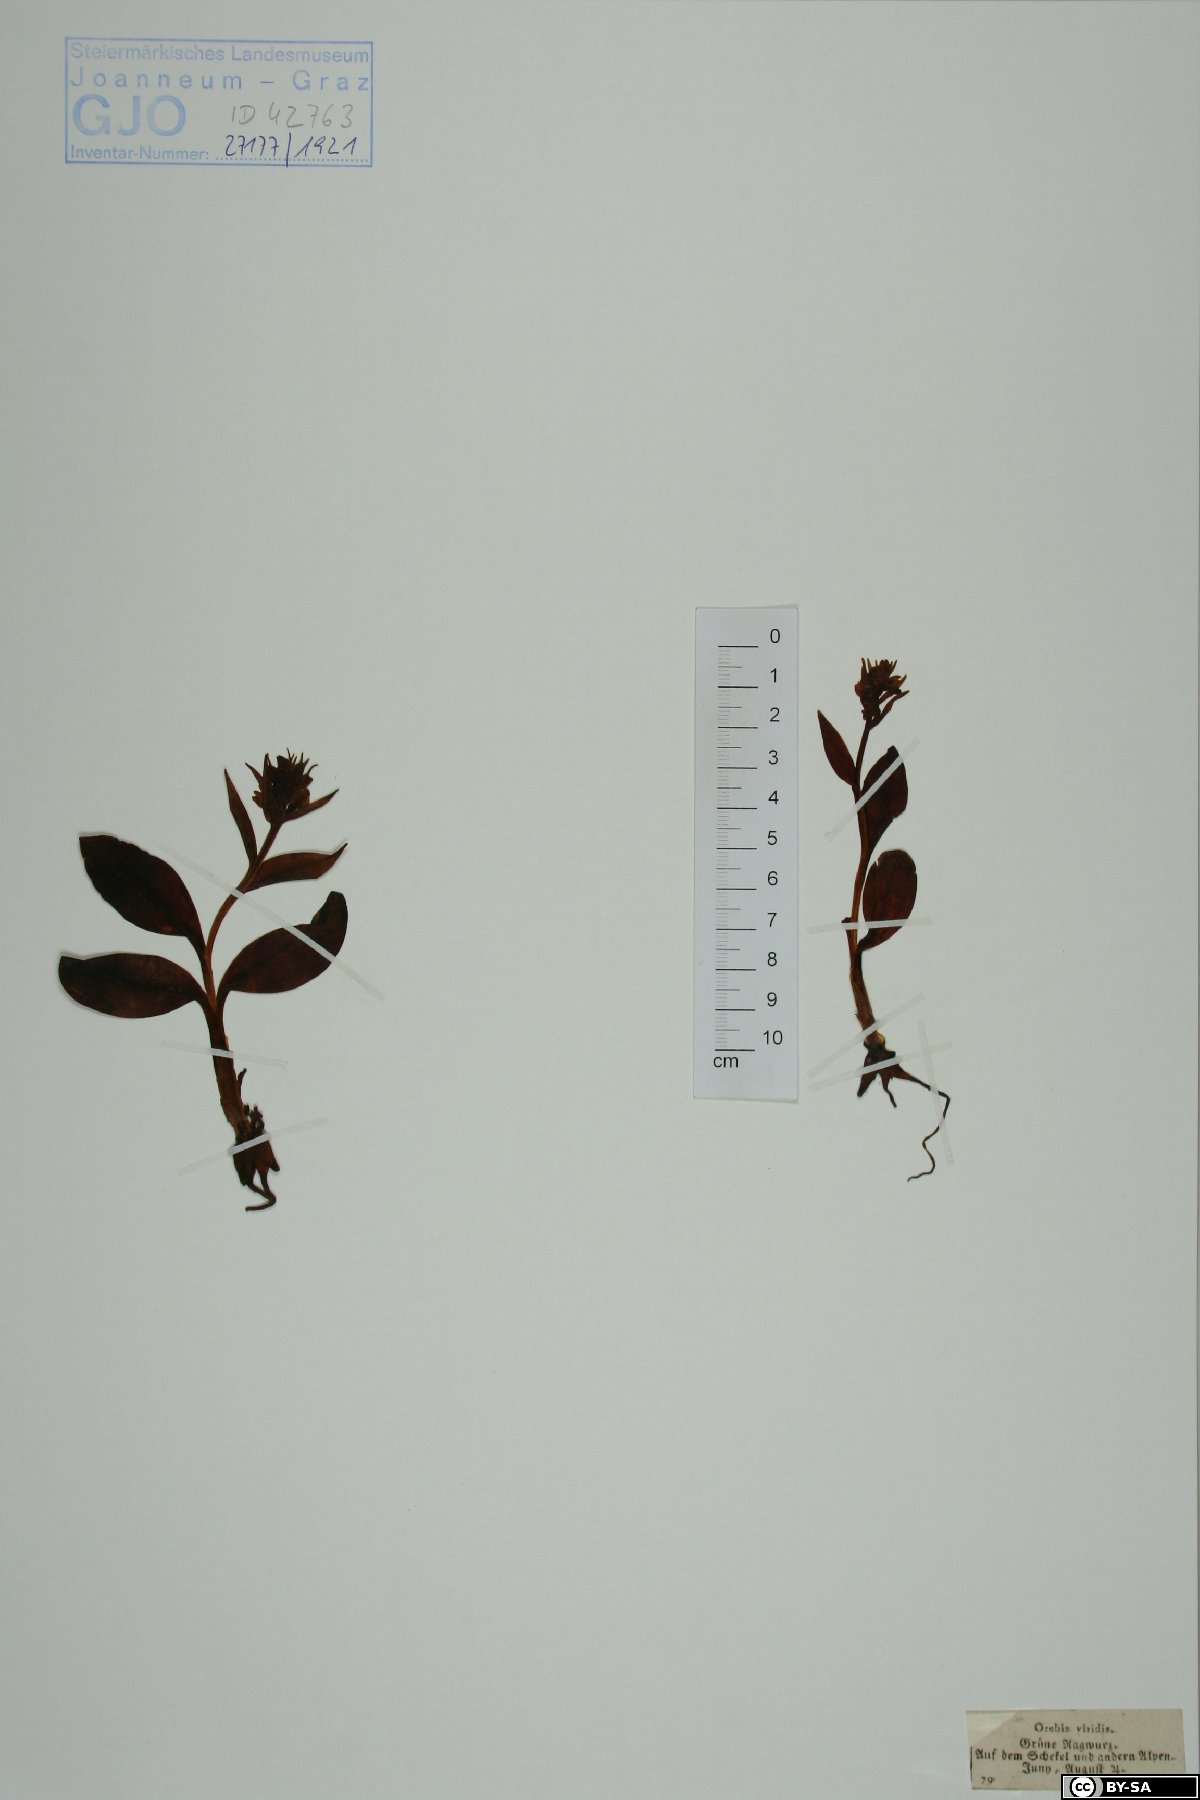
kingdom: Plantae
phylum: Tracheophyta
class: Liliopsida
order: Asparagales
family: Orchidaceae
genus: Dactylorhiza
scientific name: Dactylorhiza viridis
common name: Longbract frog orchid
